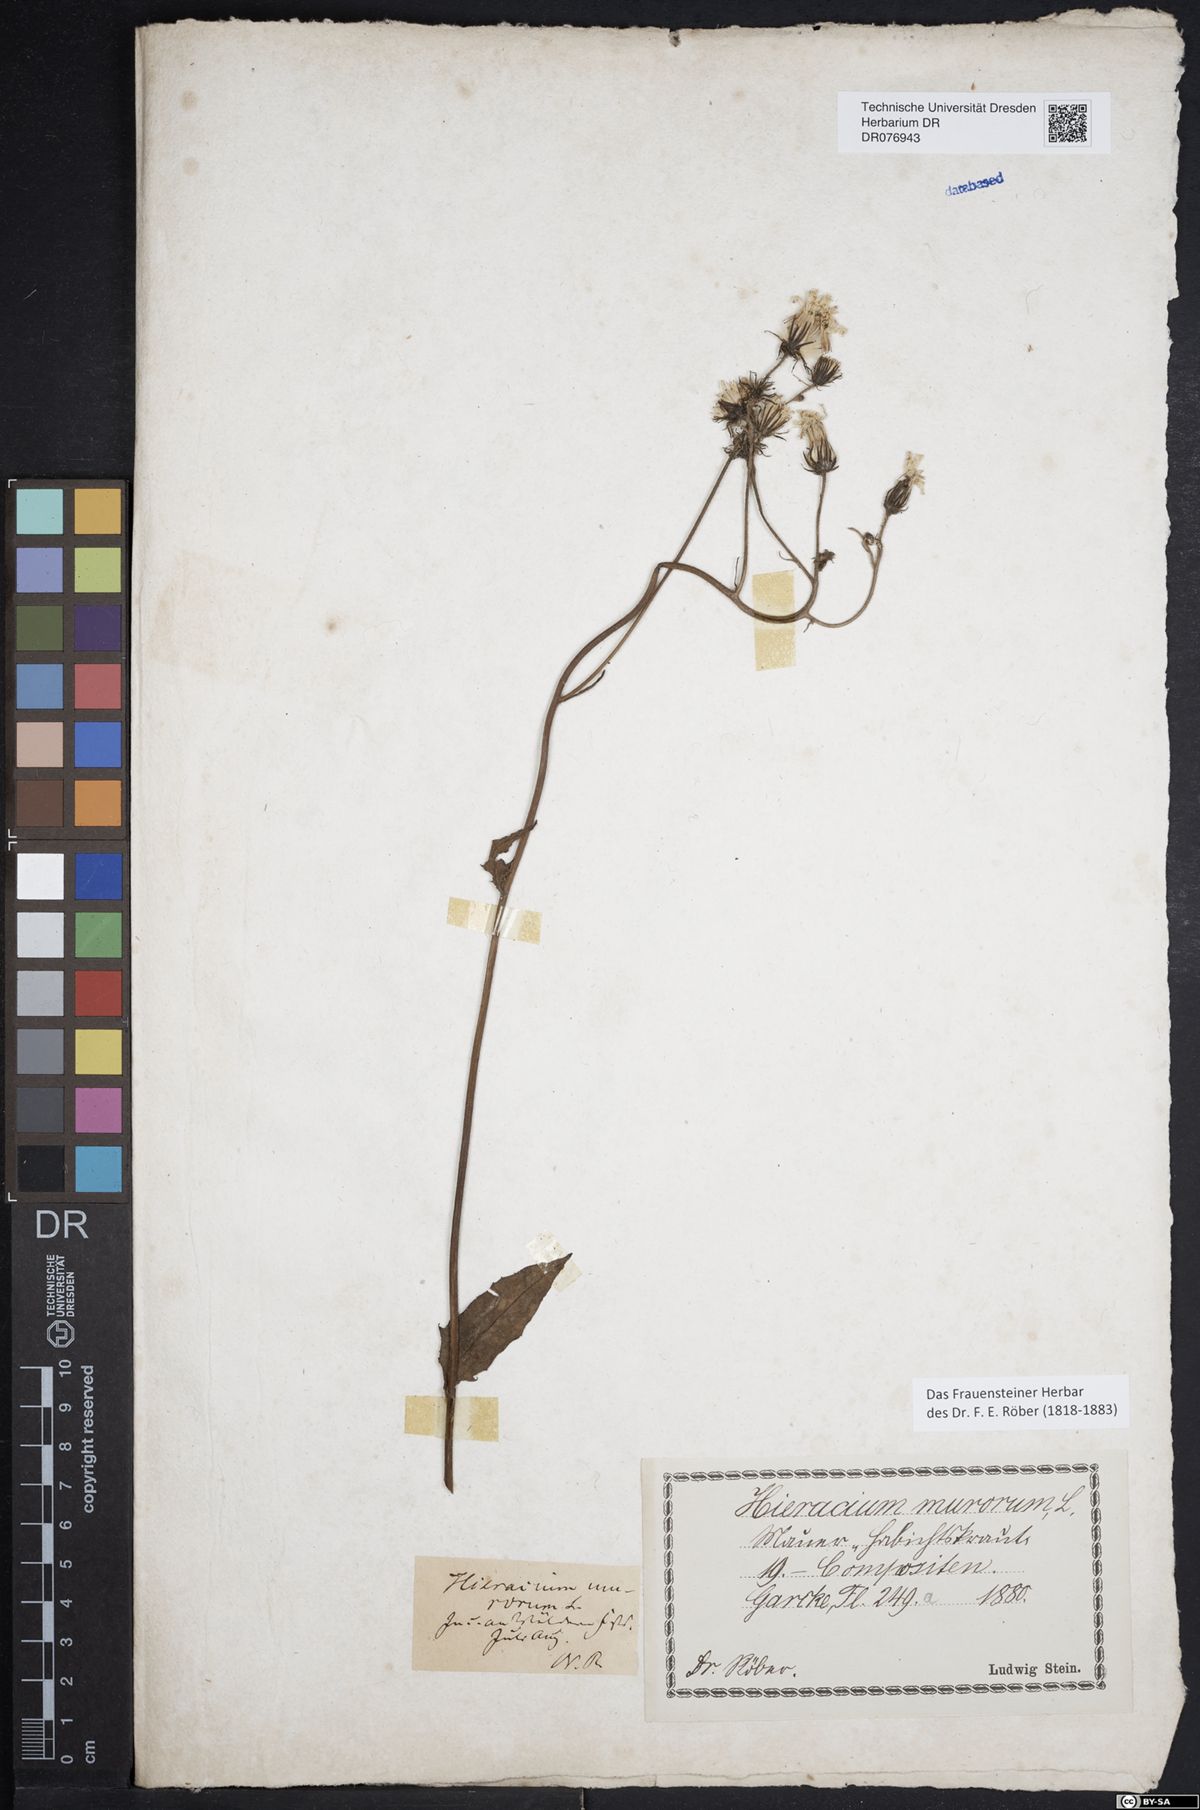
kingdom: Plantae
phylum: Tracheophyta
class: Magnoliopsida
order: Asterales
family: Asteraceae
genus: Hieracium
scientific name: Hieracium murorum
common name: Wall hawkweed
